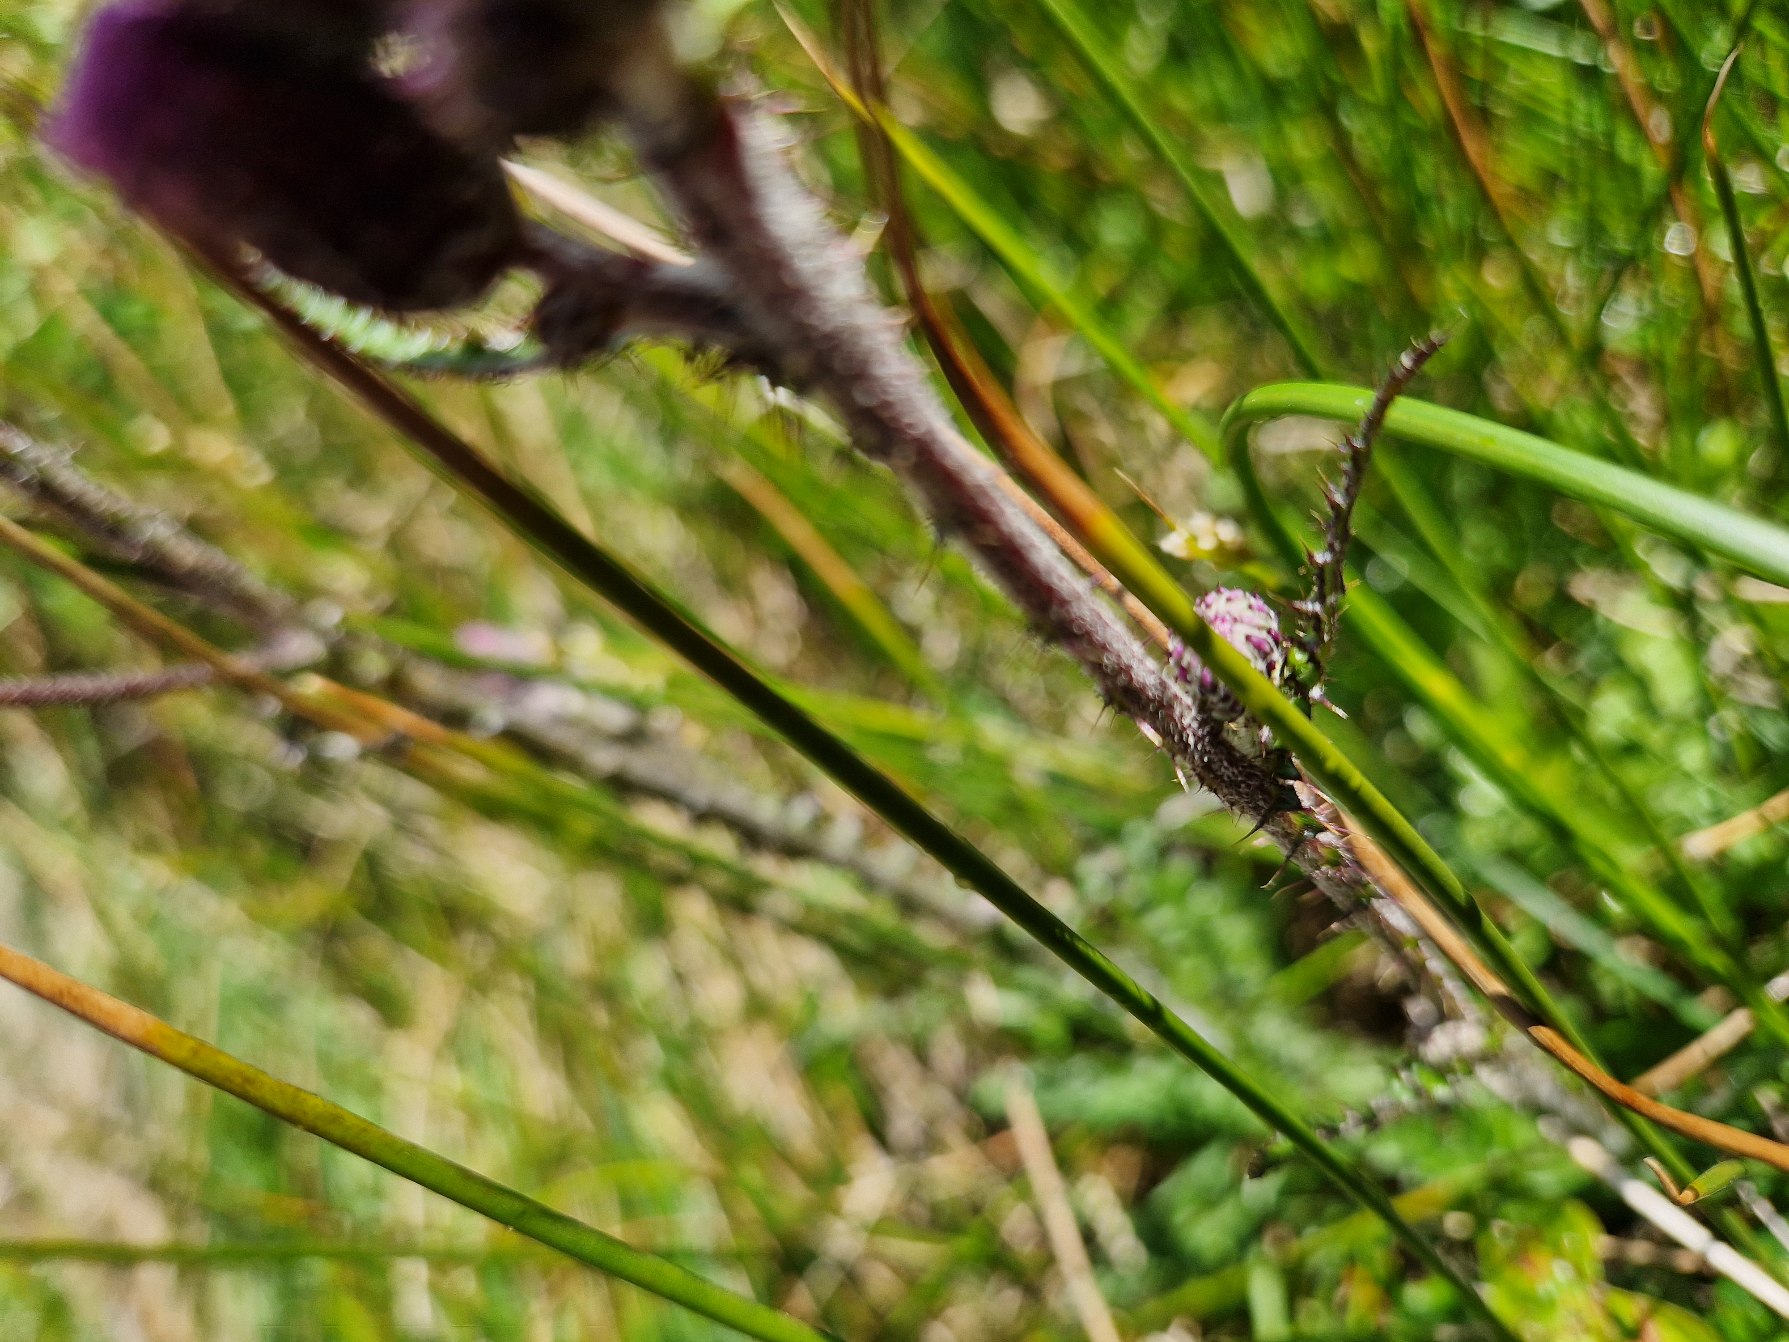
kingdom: Plantae
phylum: Tracheophyta
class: Magnoliopsida
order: Asterales
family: Asteraceae
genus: Cirsium
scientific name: Cirsium palustre
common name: Kær-tidsel
